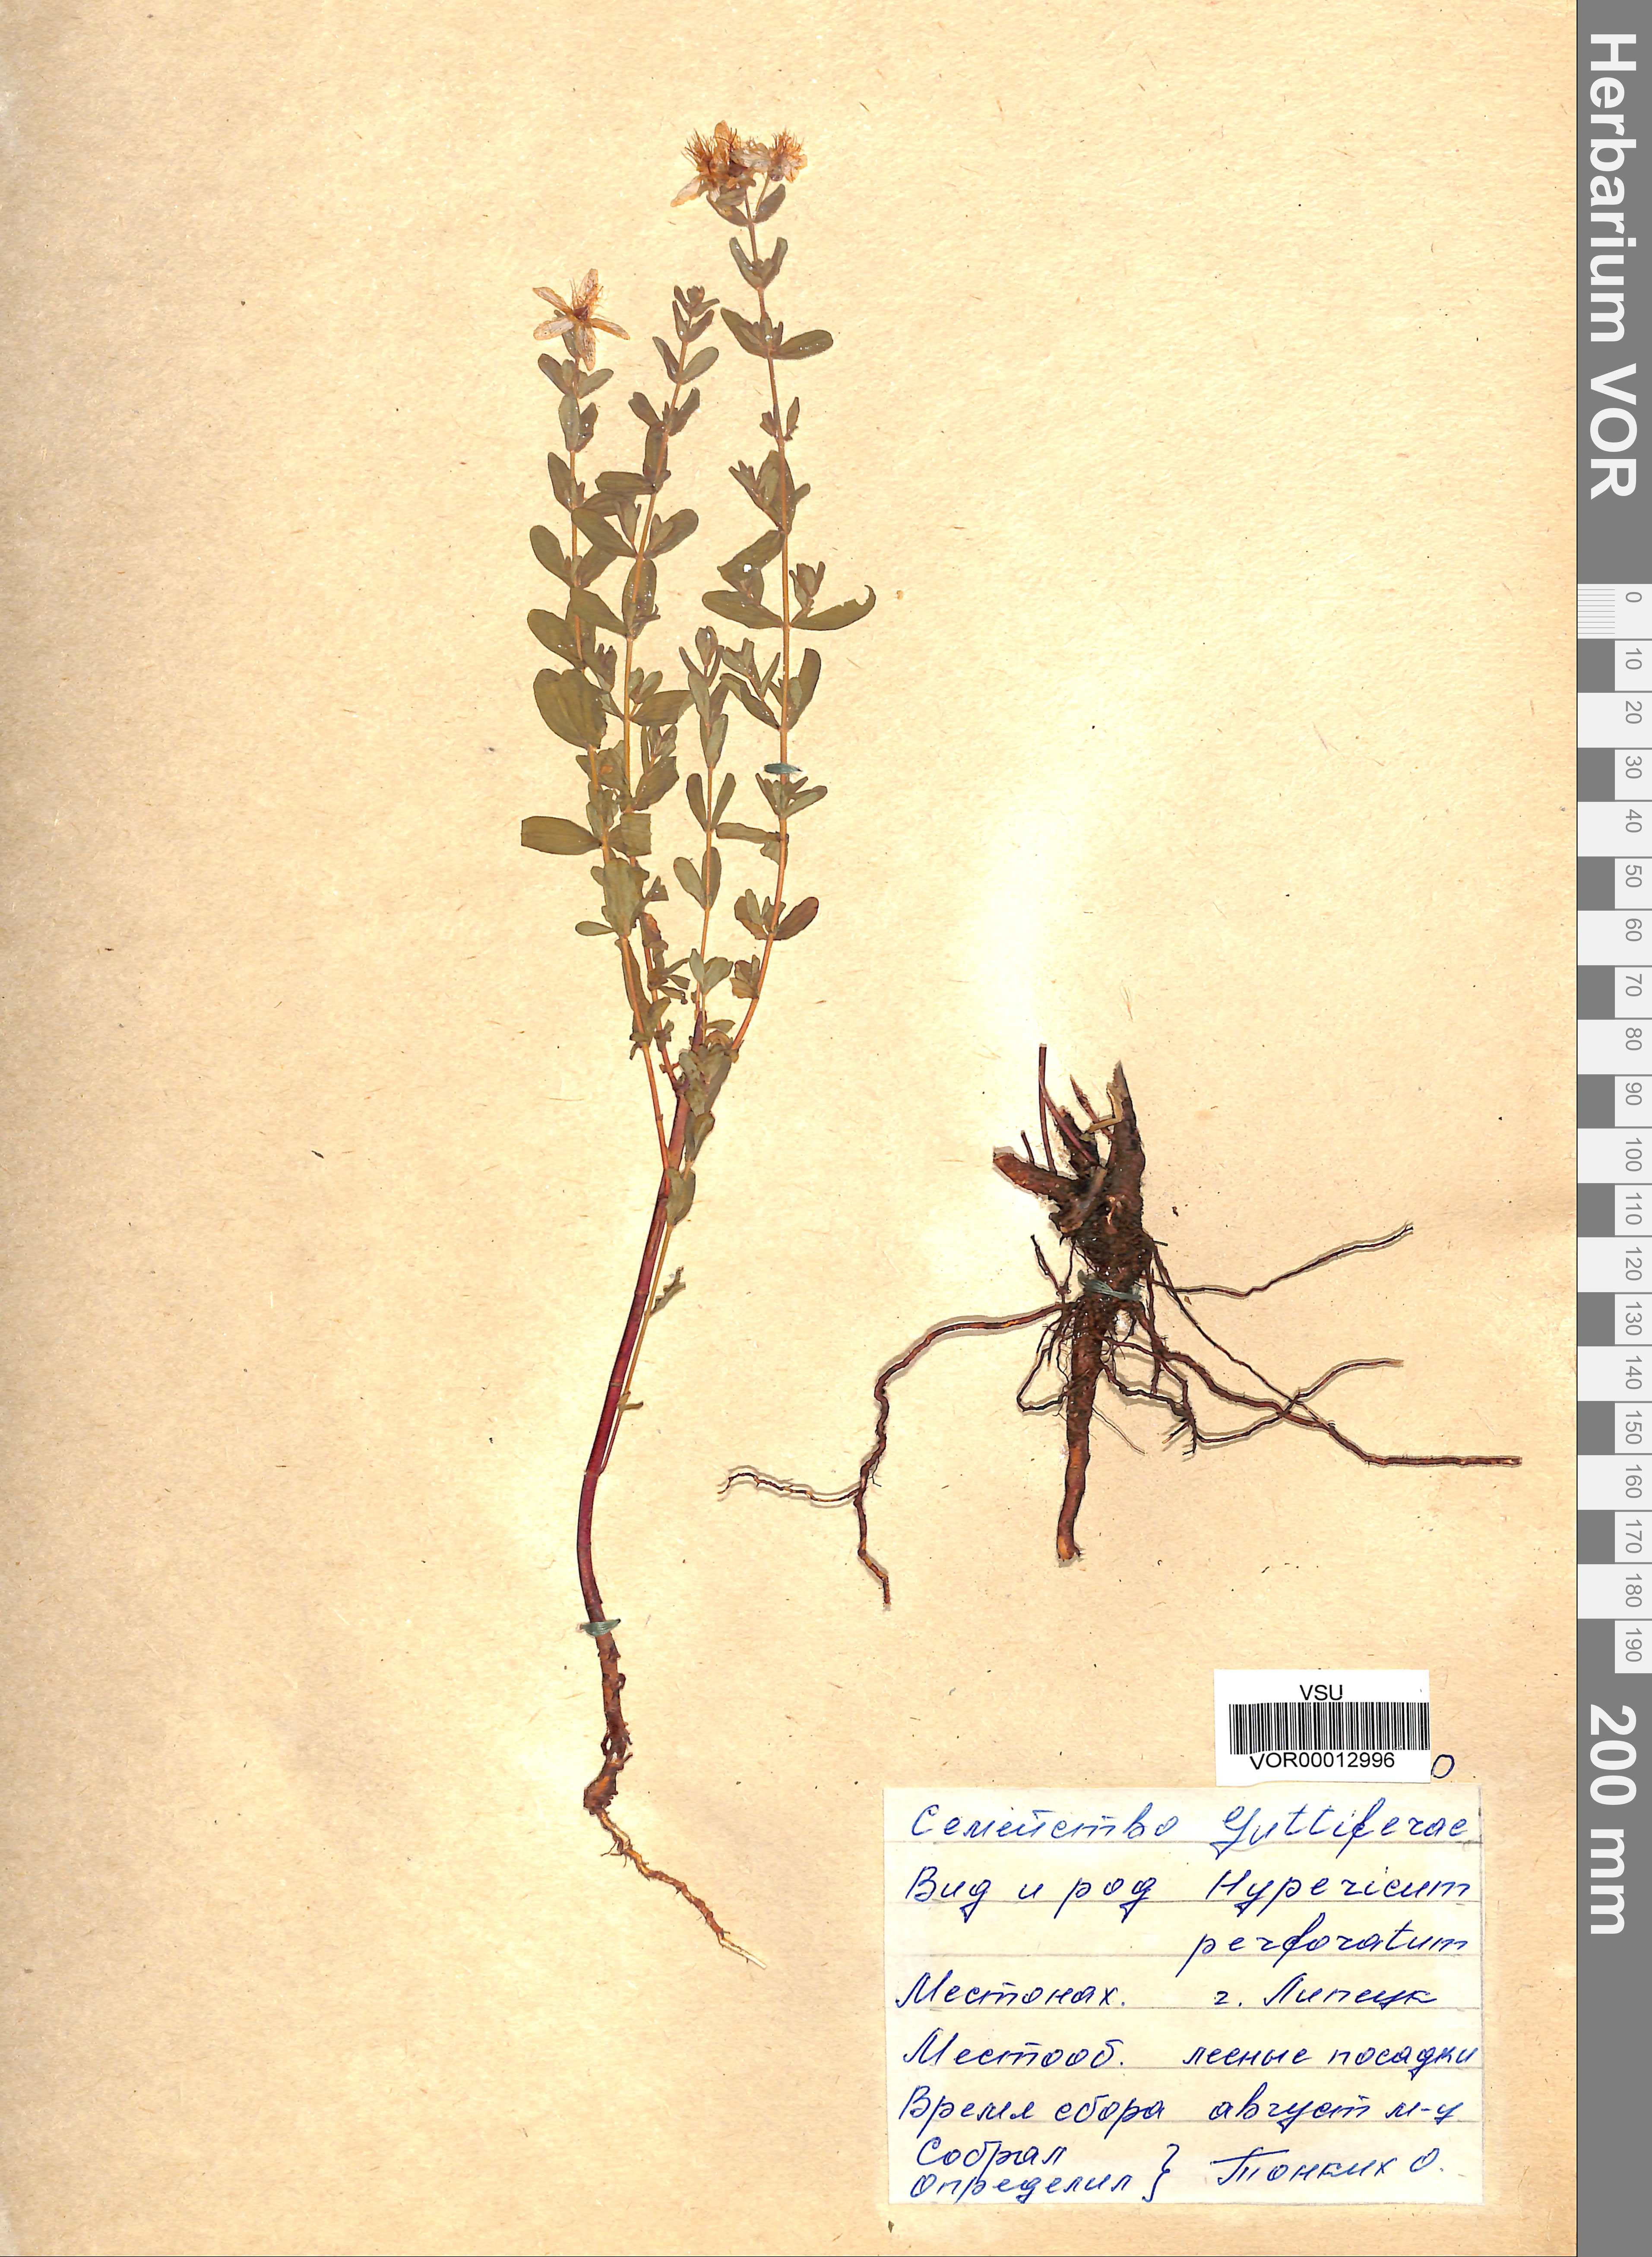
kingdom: Plantae
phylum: Tracheophyta
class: Magnoliopsida
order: Malpighiales
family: Hypericaceae
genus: Hypericum
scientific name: Hypericum perforatum
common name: Common st. johnswort
